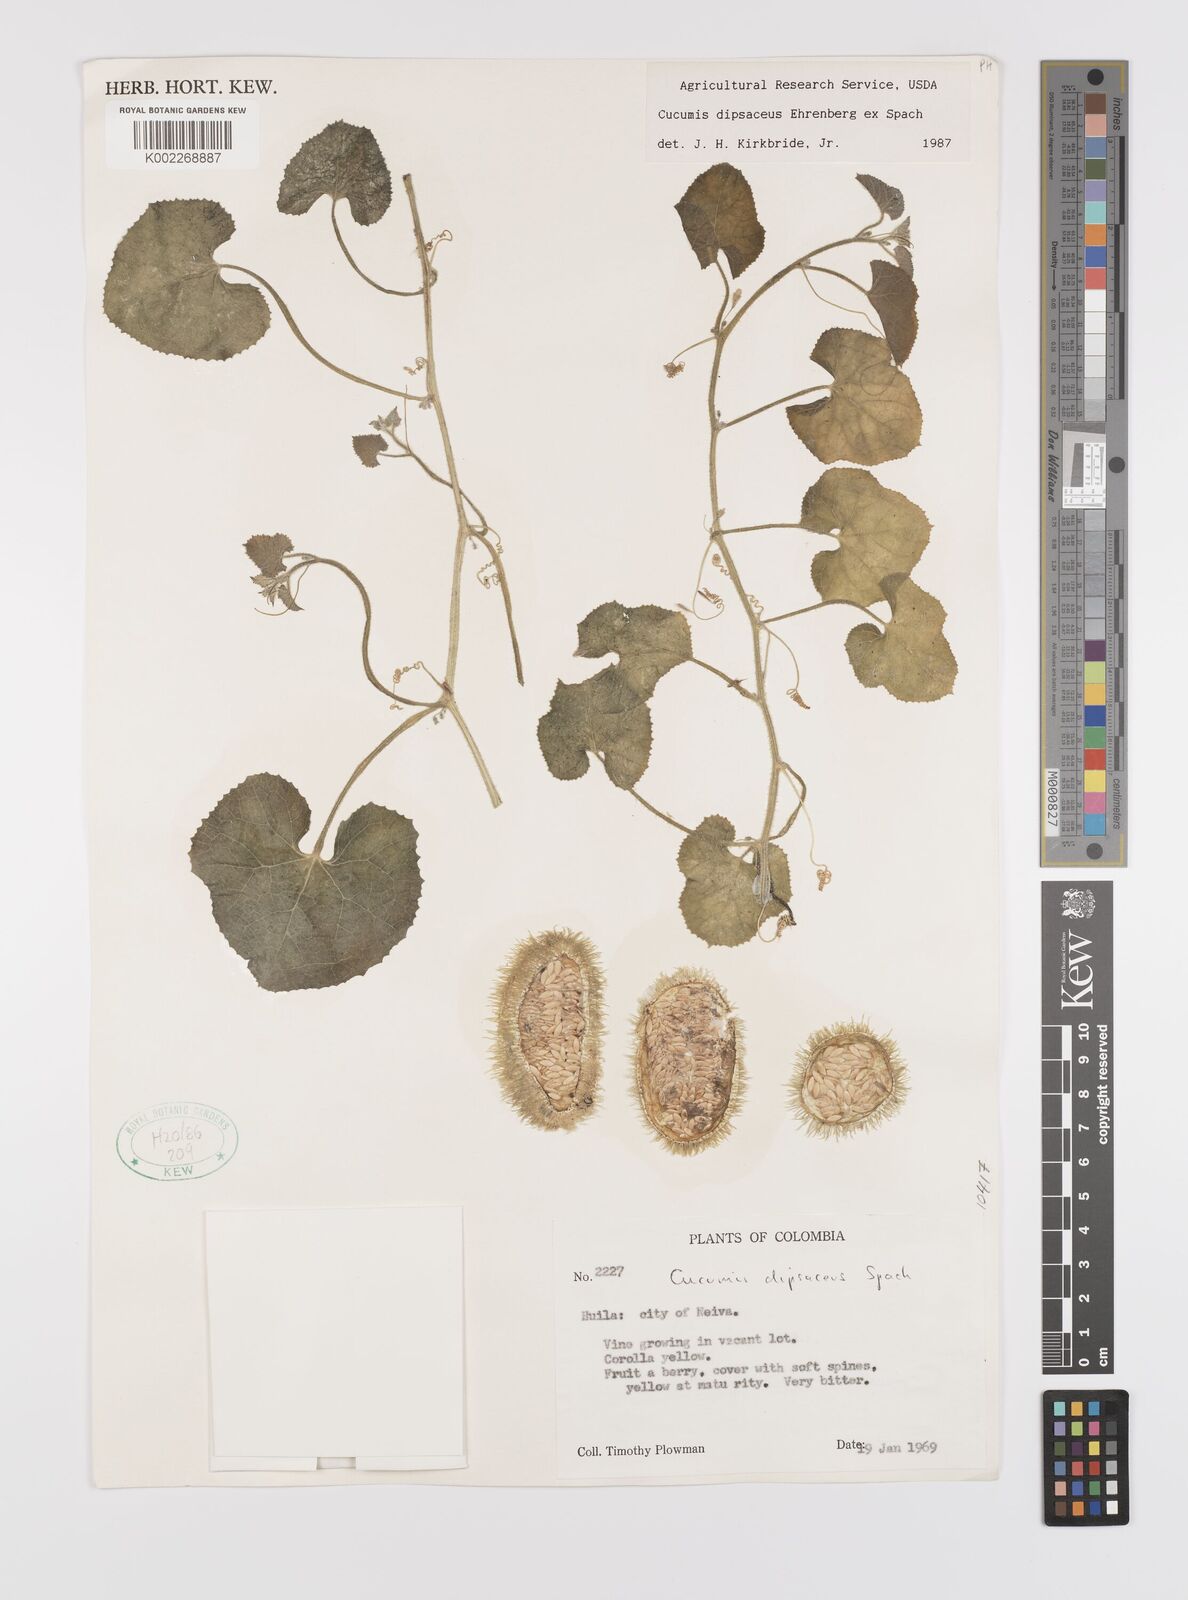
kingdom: Plantae
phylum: Tracheophyta
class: Magnoliopsida
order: Cucurbitales
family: Cucurbitaceae
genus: Cucumis
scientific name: Cucumis
